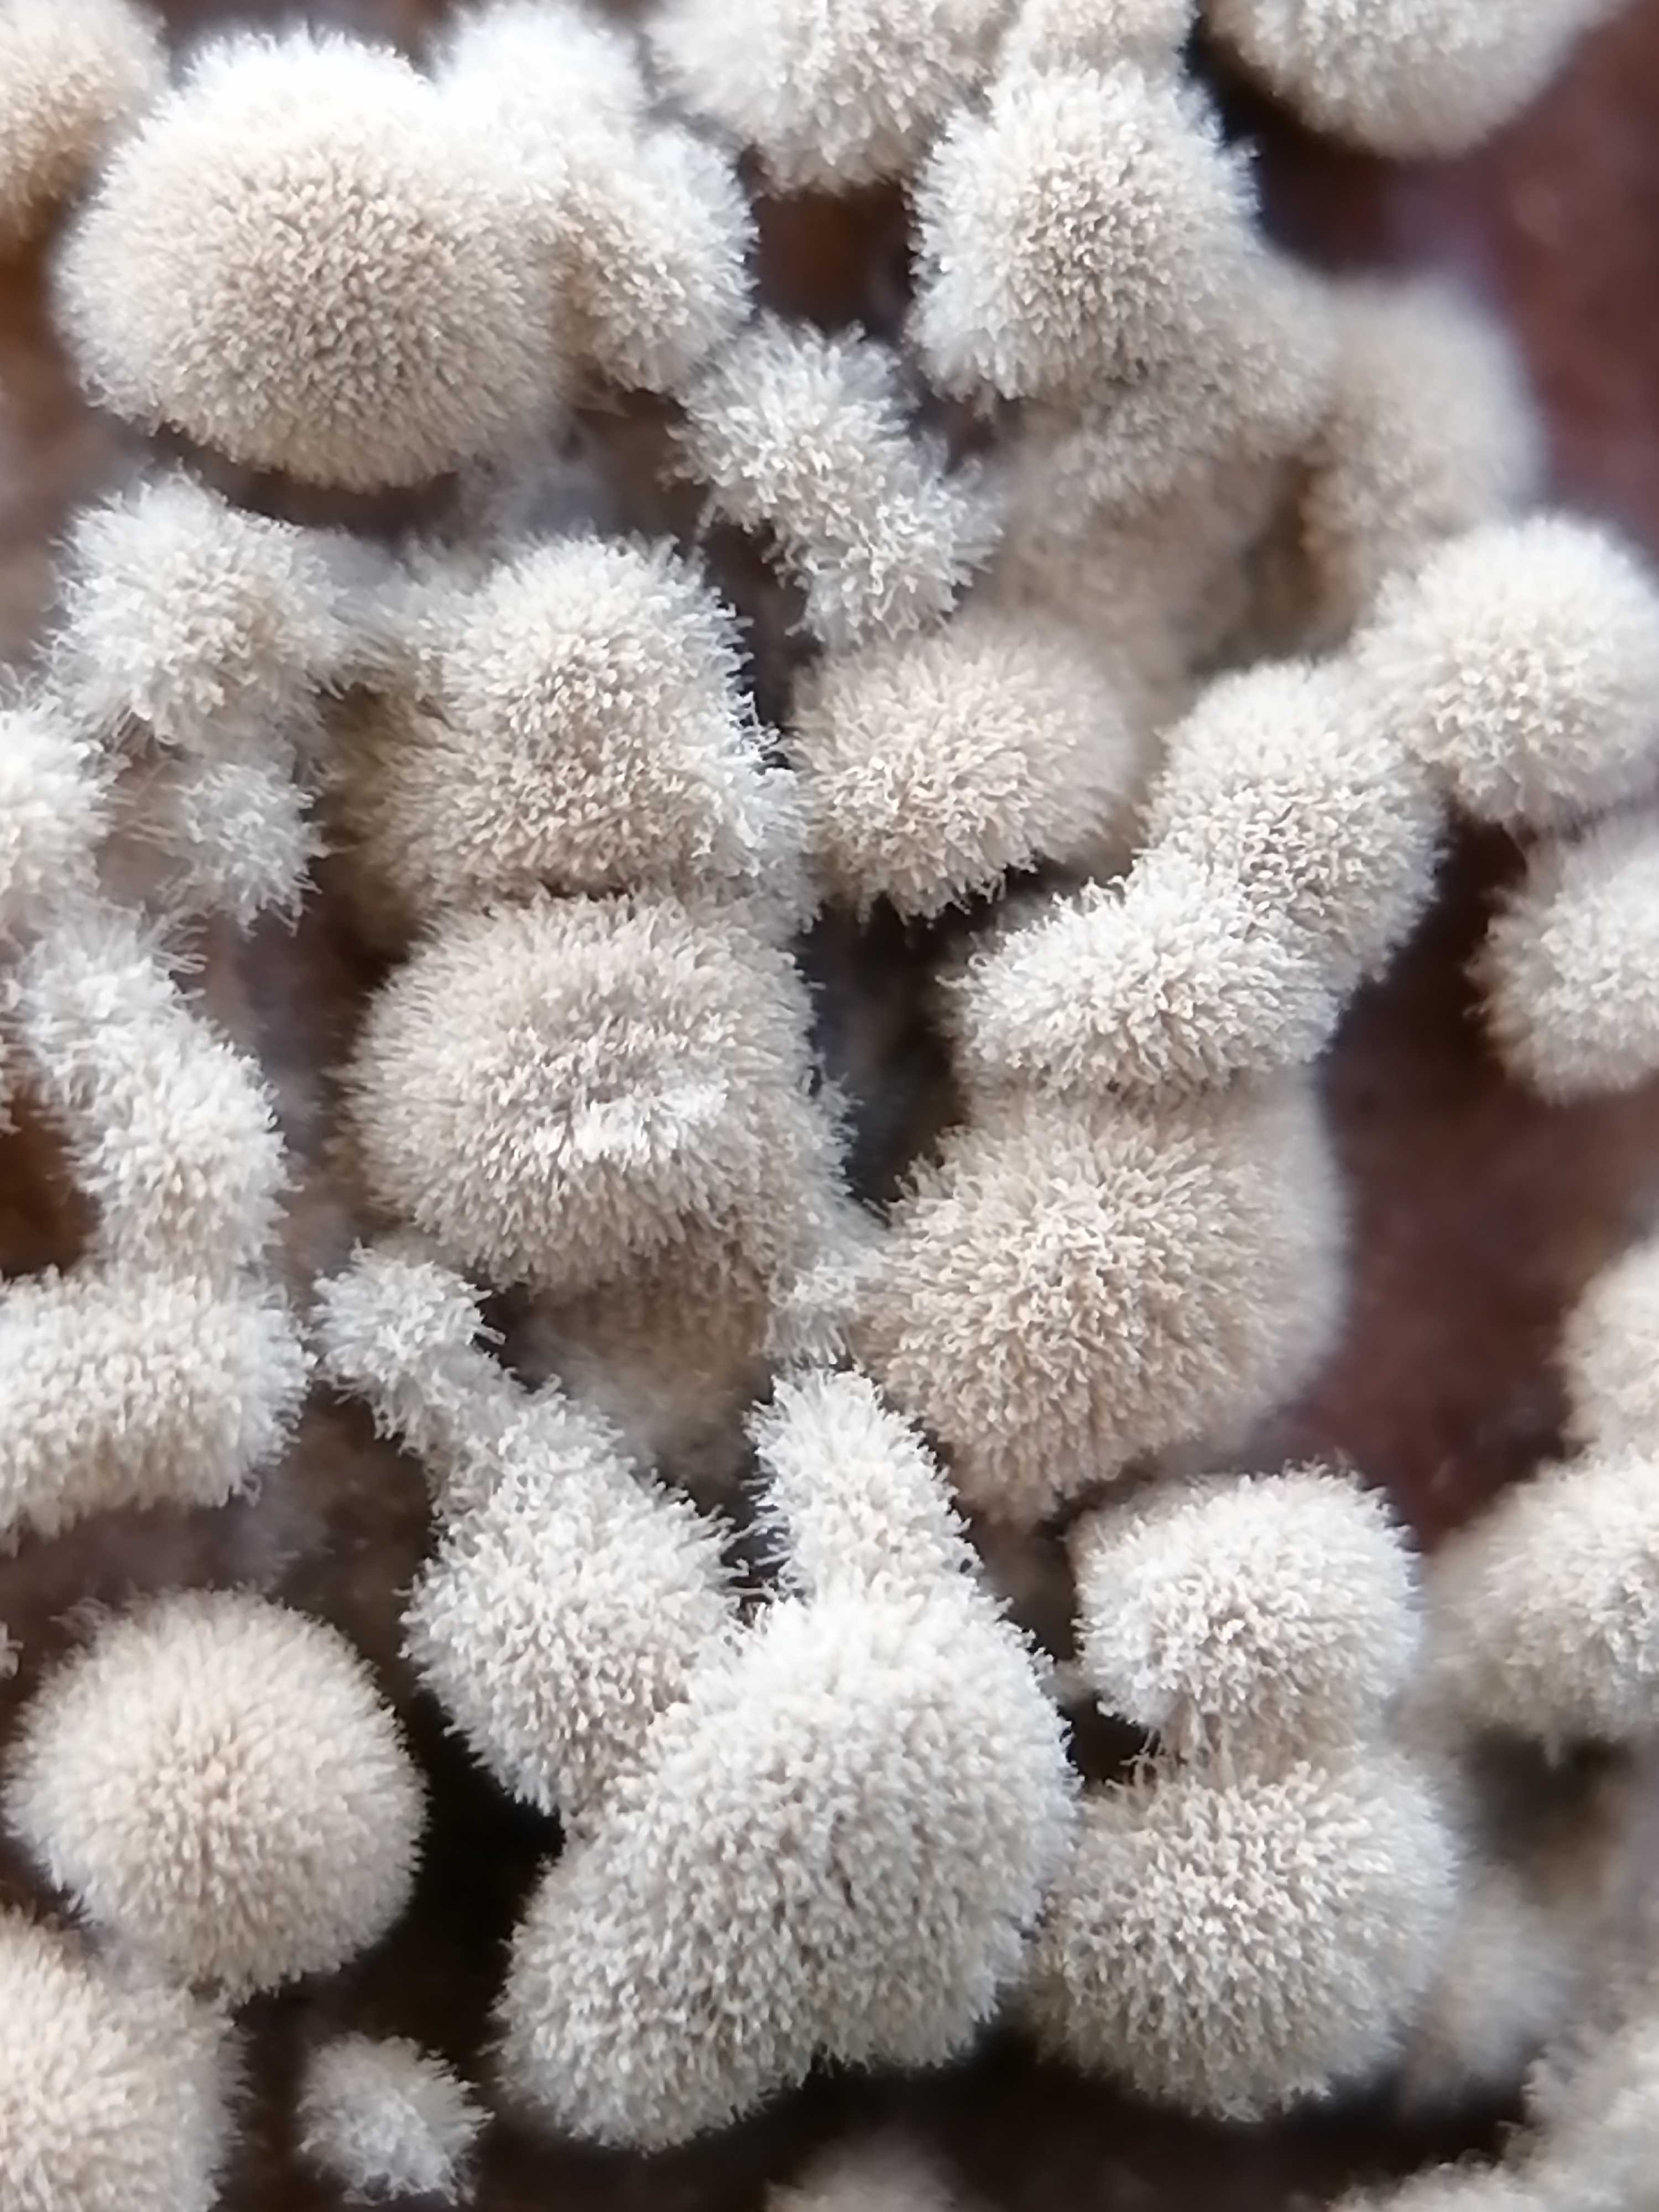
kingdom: Fungi
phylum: Ascomycota
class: Leotiomycetes
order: Helotiales
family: Sclerotiniaceae
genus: Monilinia
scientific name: Monilinia fructigena
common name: æble-knoldskive
